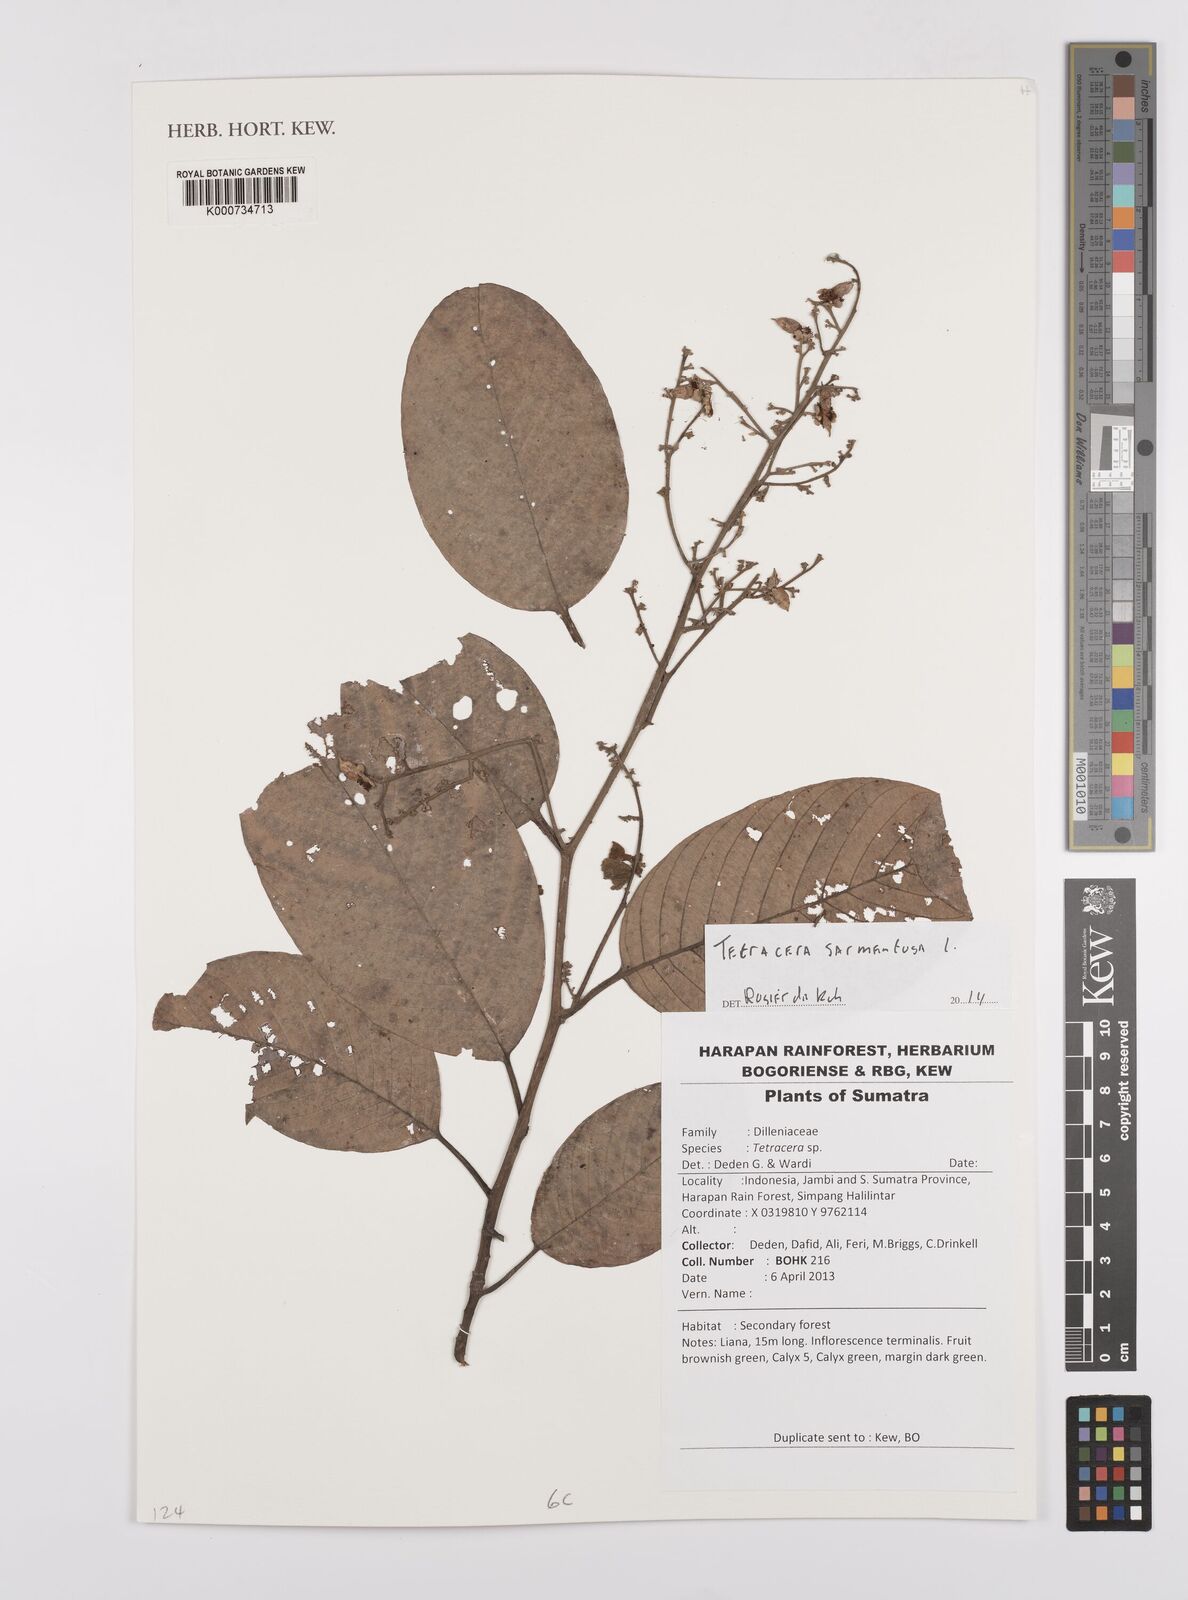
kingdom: Plantae
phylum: Tracheophyta
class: Magnoliopsida
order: Dilleniales
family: Dilleniaceae
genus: Tetracera
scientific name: Tetracera sarmentosa
